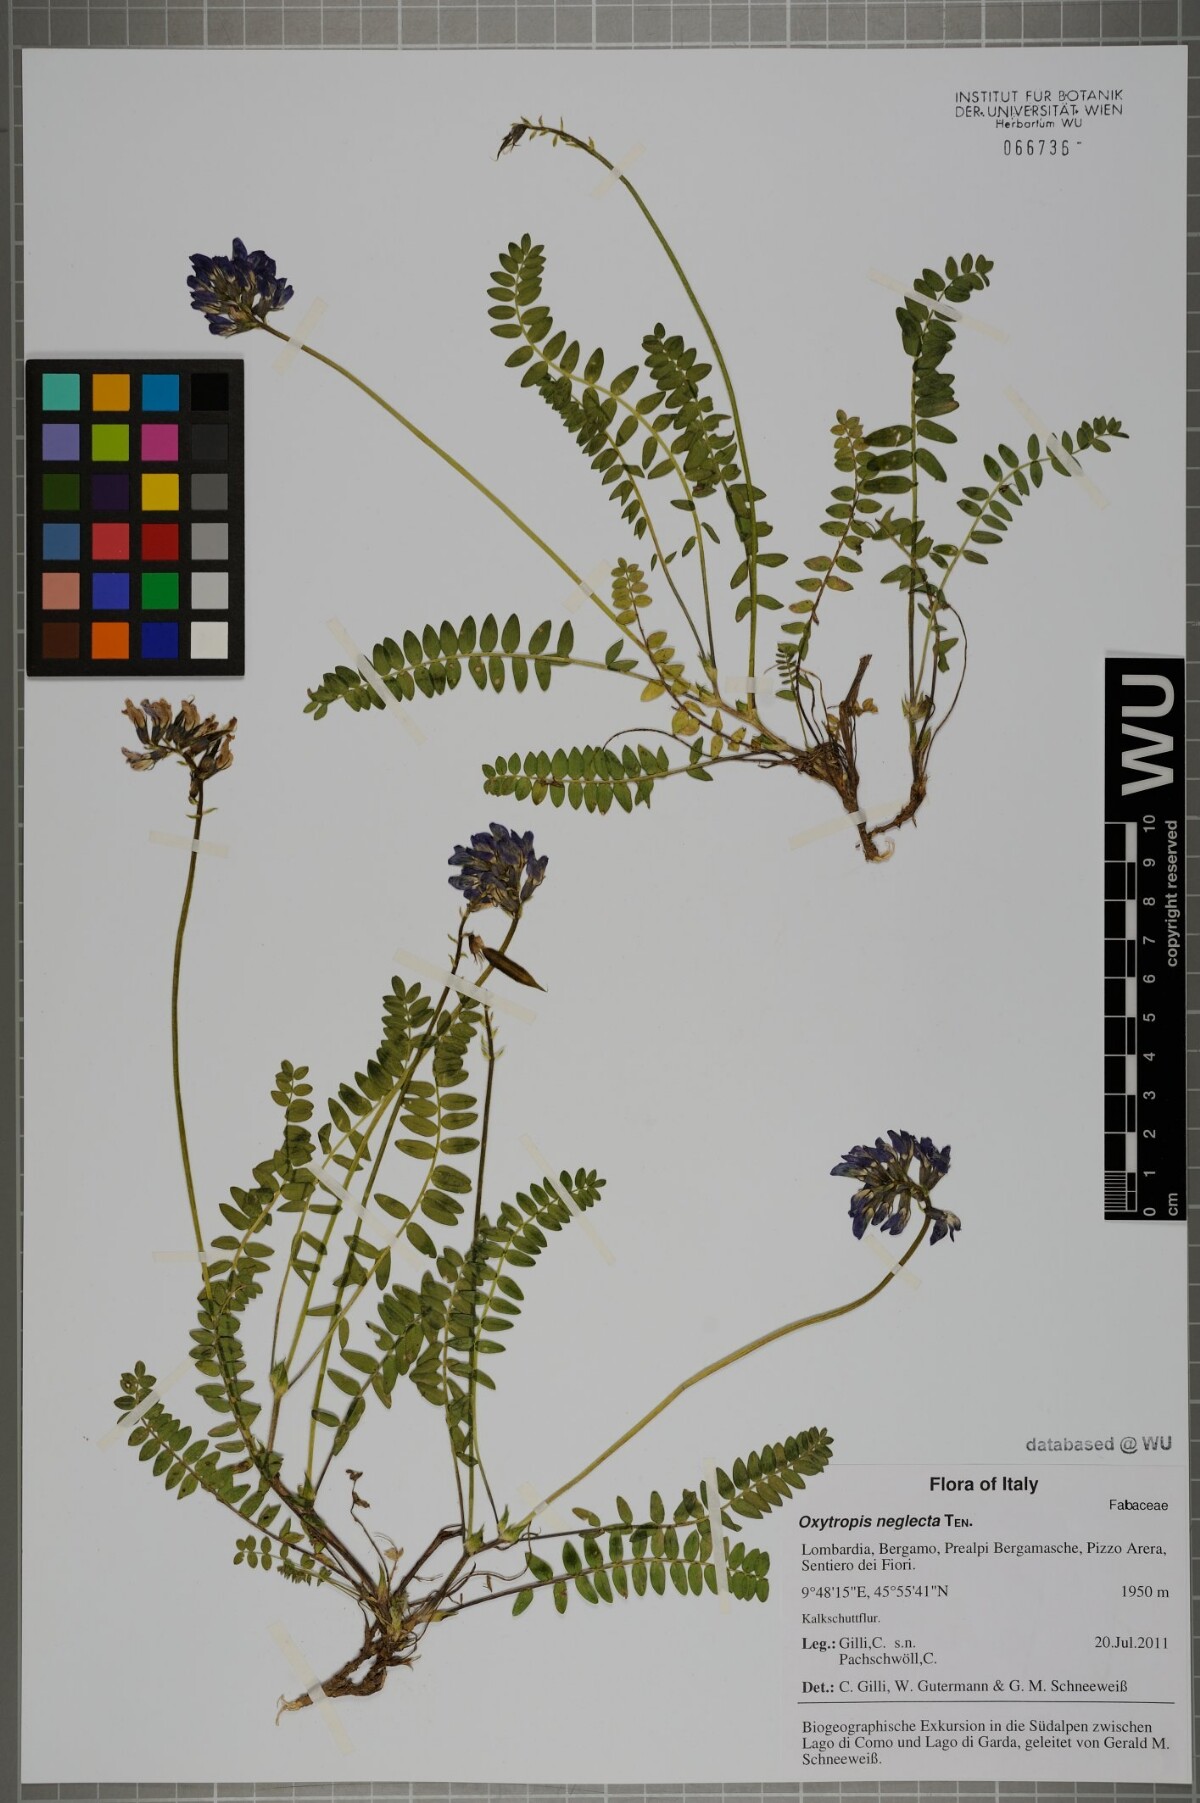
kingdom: Plantae
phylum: Tracheophyta
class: Magnoliopsida
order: Fabales
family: Fabaceae
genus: Oxytropis
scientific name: Oxytropis neglecta
